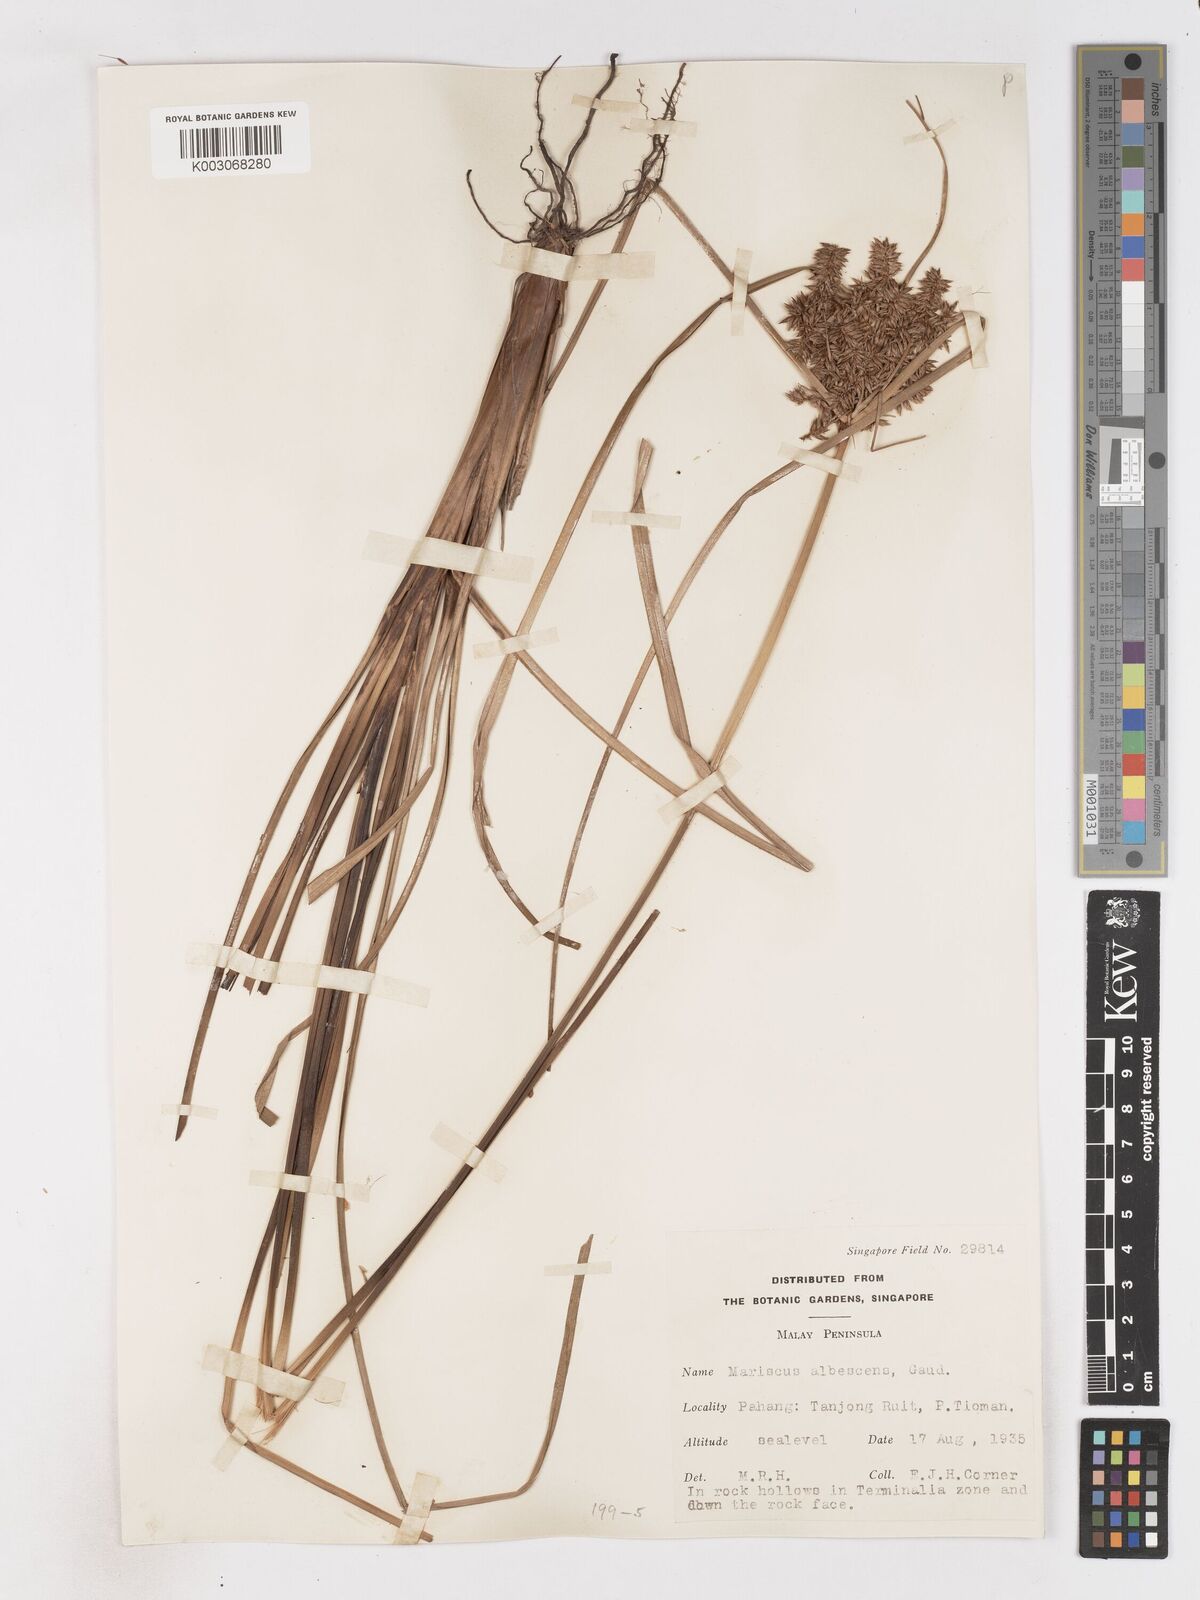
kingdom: Plantae
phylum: Tracheophyta
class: Liliopsida
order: Poales
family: Cyperaceae
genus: Cyperus
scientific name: Cyperus javanicus
